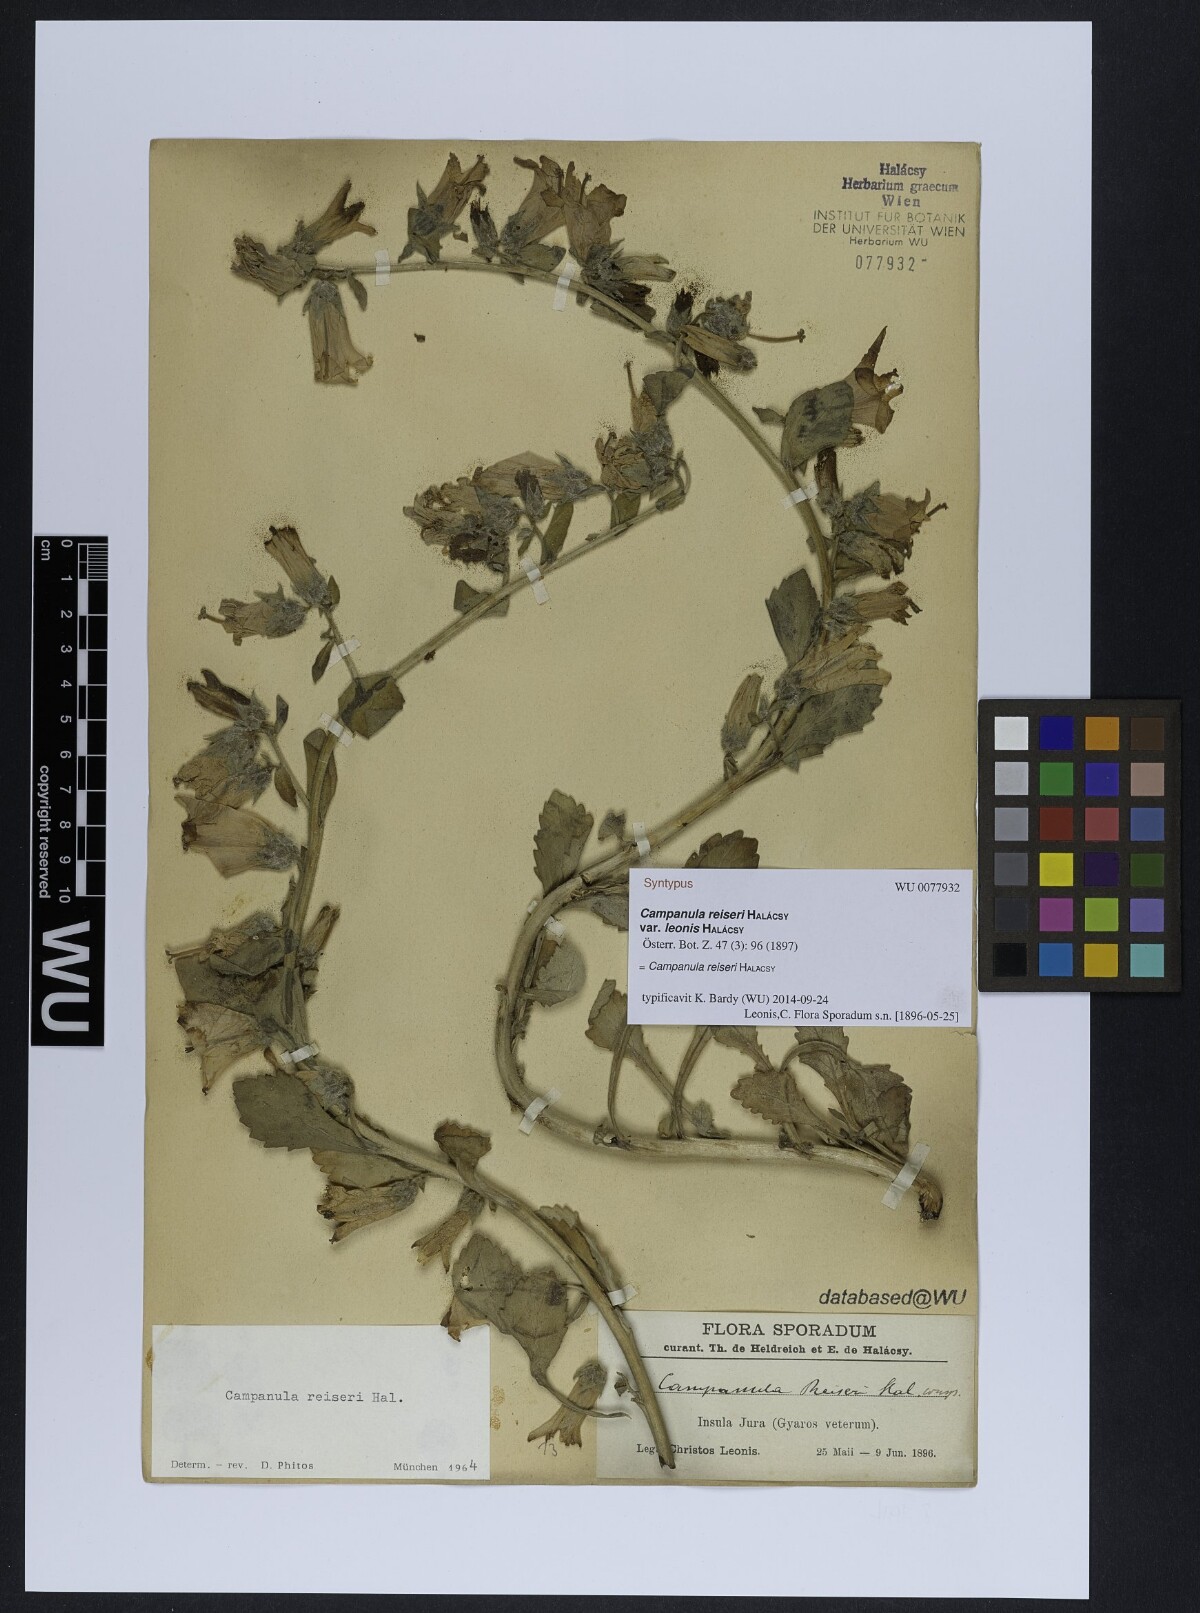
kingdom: Plantae
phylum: Tracheophyta
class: Magnoliopsida
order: Asterales
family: Campanulaceae
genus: Campanula
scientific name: Campanula reiseri
